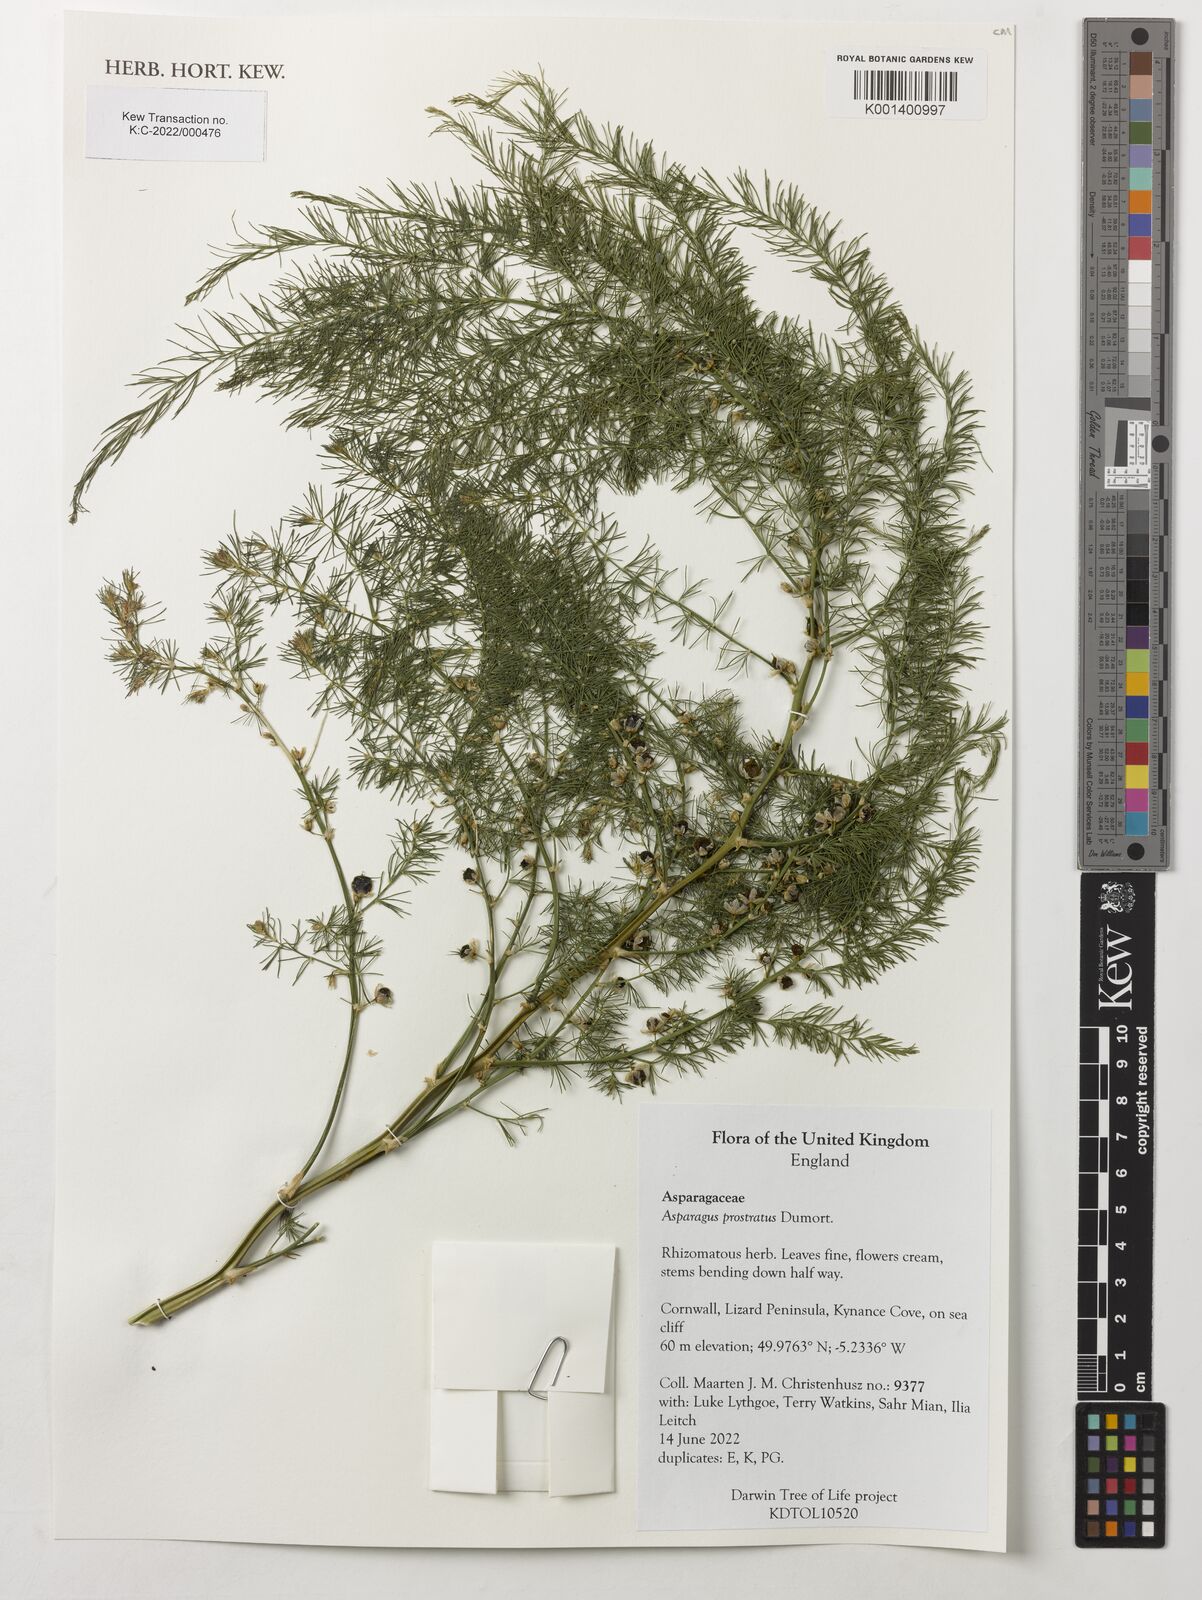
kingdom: Plantae
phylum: Tracheophyta
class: Liliopsida
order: Asparagales
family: Asparagaceae
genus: Asparagus
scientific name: Asparagus prostratus
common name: Wild asparagus
